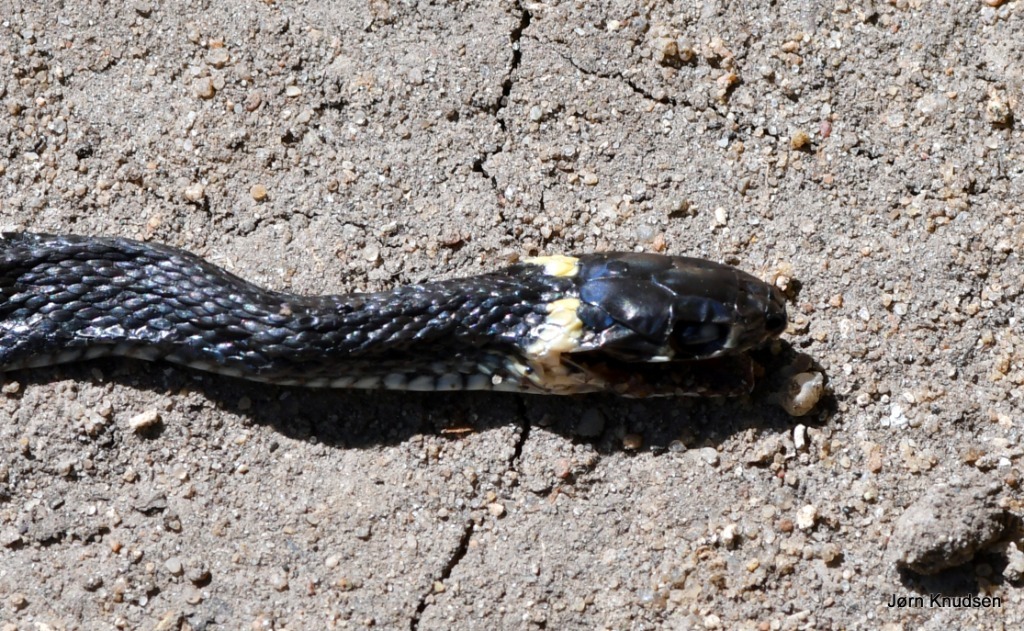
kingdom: Animalia
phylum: Chordata
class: Squamata
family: Colubridae
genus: Natrix
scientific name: Natrix natrix
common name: Snog
